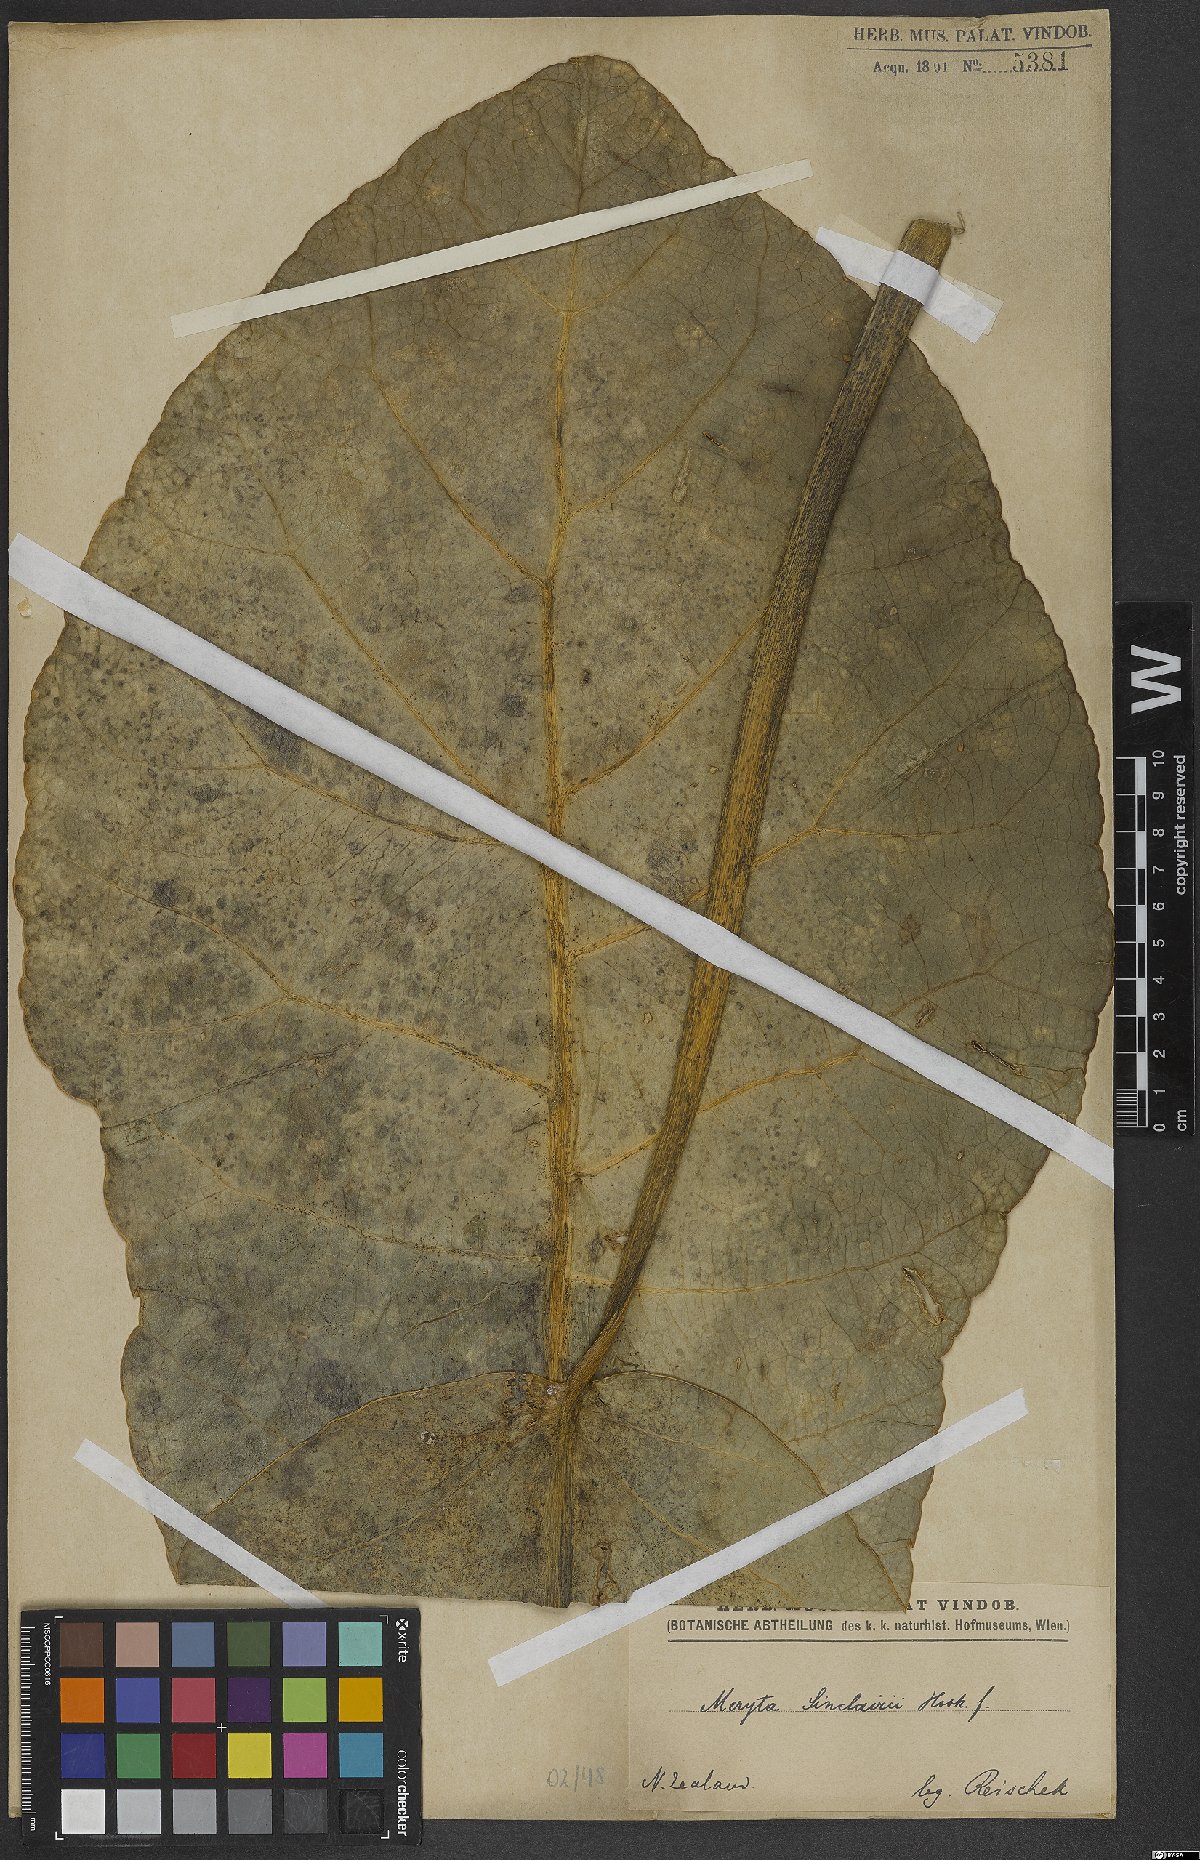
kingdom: Plantae
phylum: Tracheophyta
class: Magnoliopsida
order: Apiales
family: Araliaceae
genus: Meryta
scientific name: Meryta sinclairii
